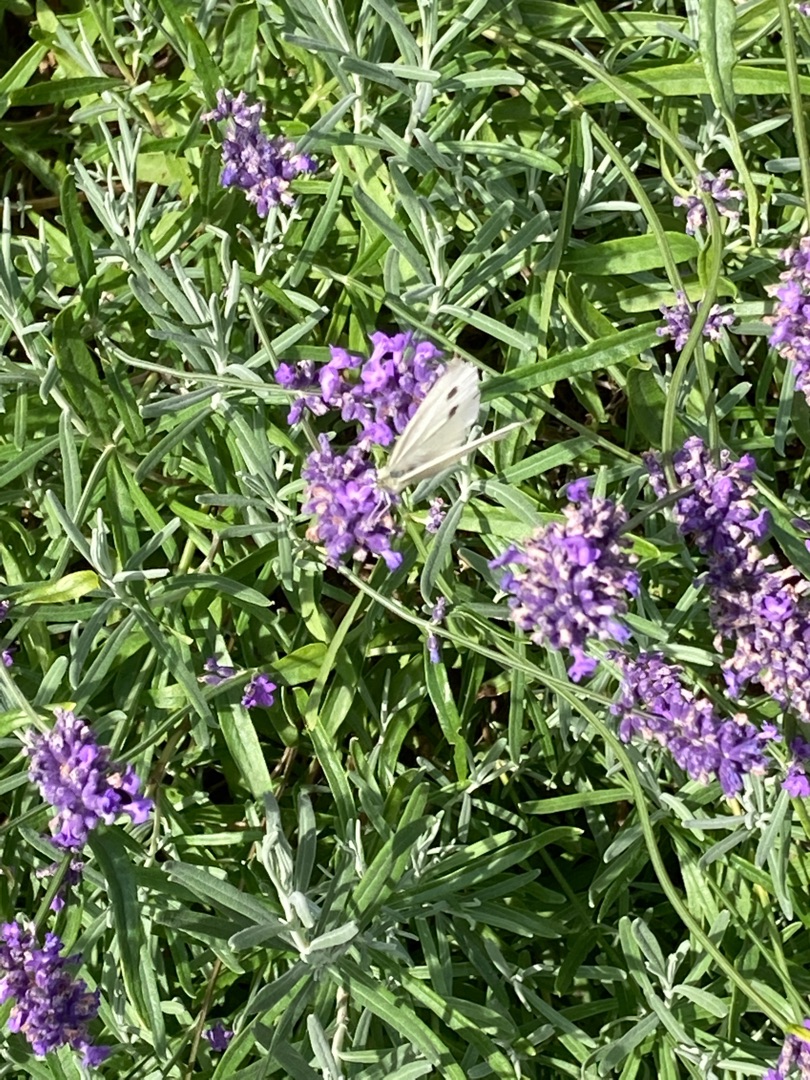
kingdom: Animalia
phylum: Arthropoda
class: Insecta
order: Lepidoptera
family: Pieridae
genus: Pieris
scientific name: Pieris rapae
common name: Lille kålsommerfugl
